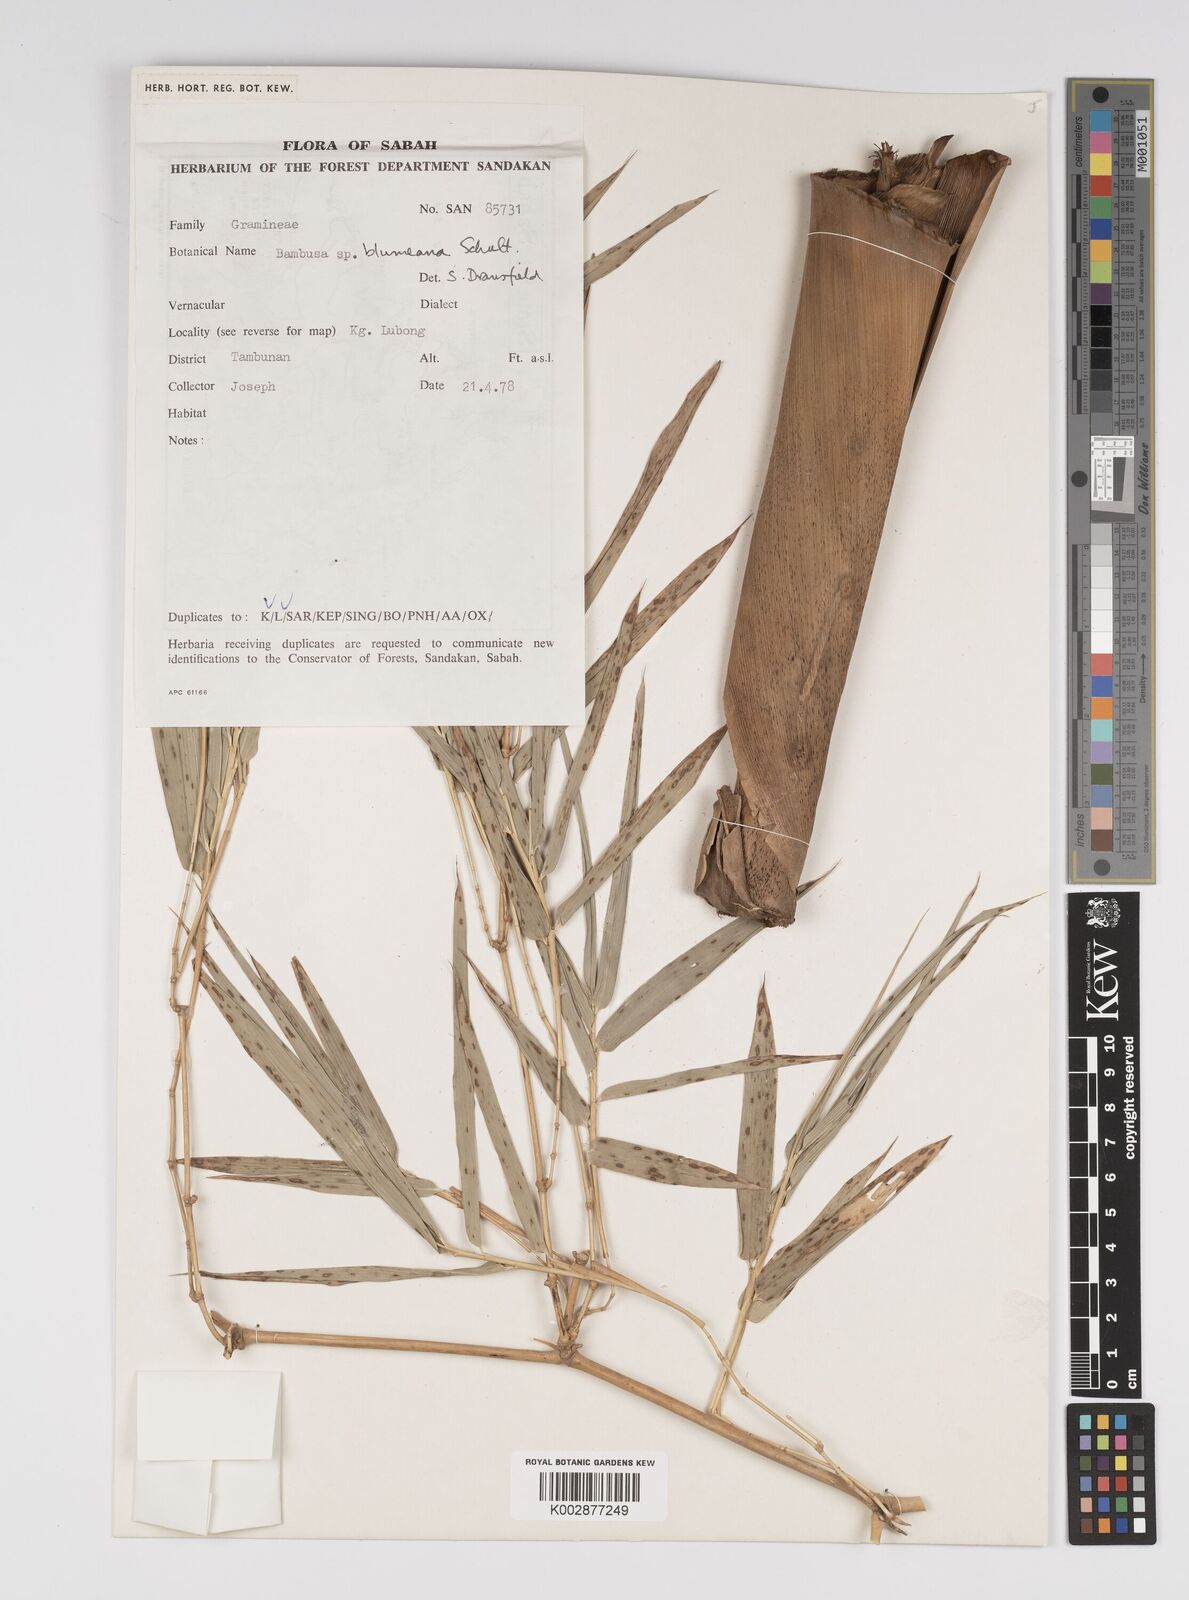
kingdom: Plantae
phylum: Tracheophyta
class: Liliopsida
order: Poales
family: Poaceae
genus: Bambusa
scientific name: Bambusa spinosa
